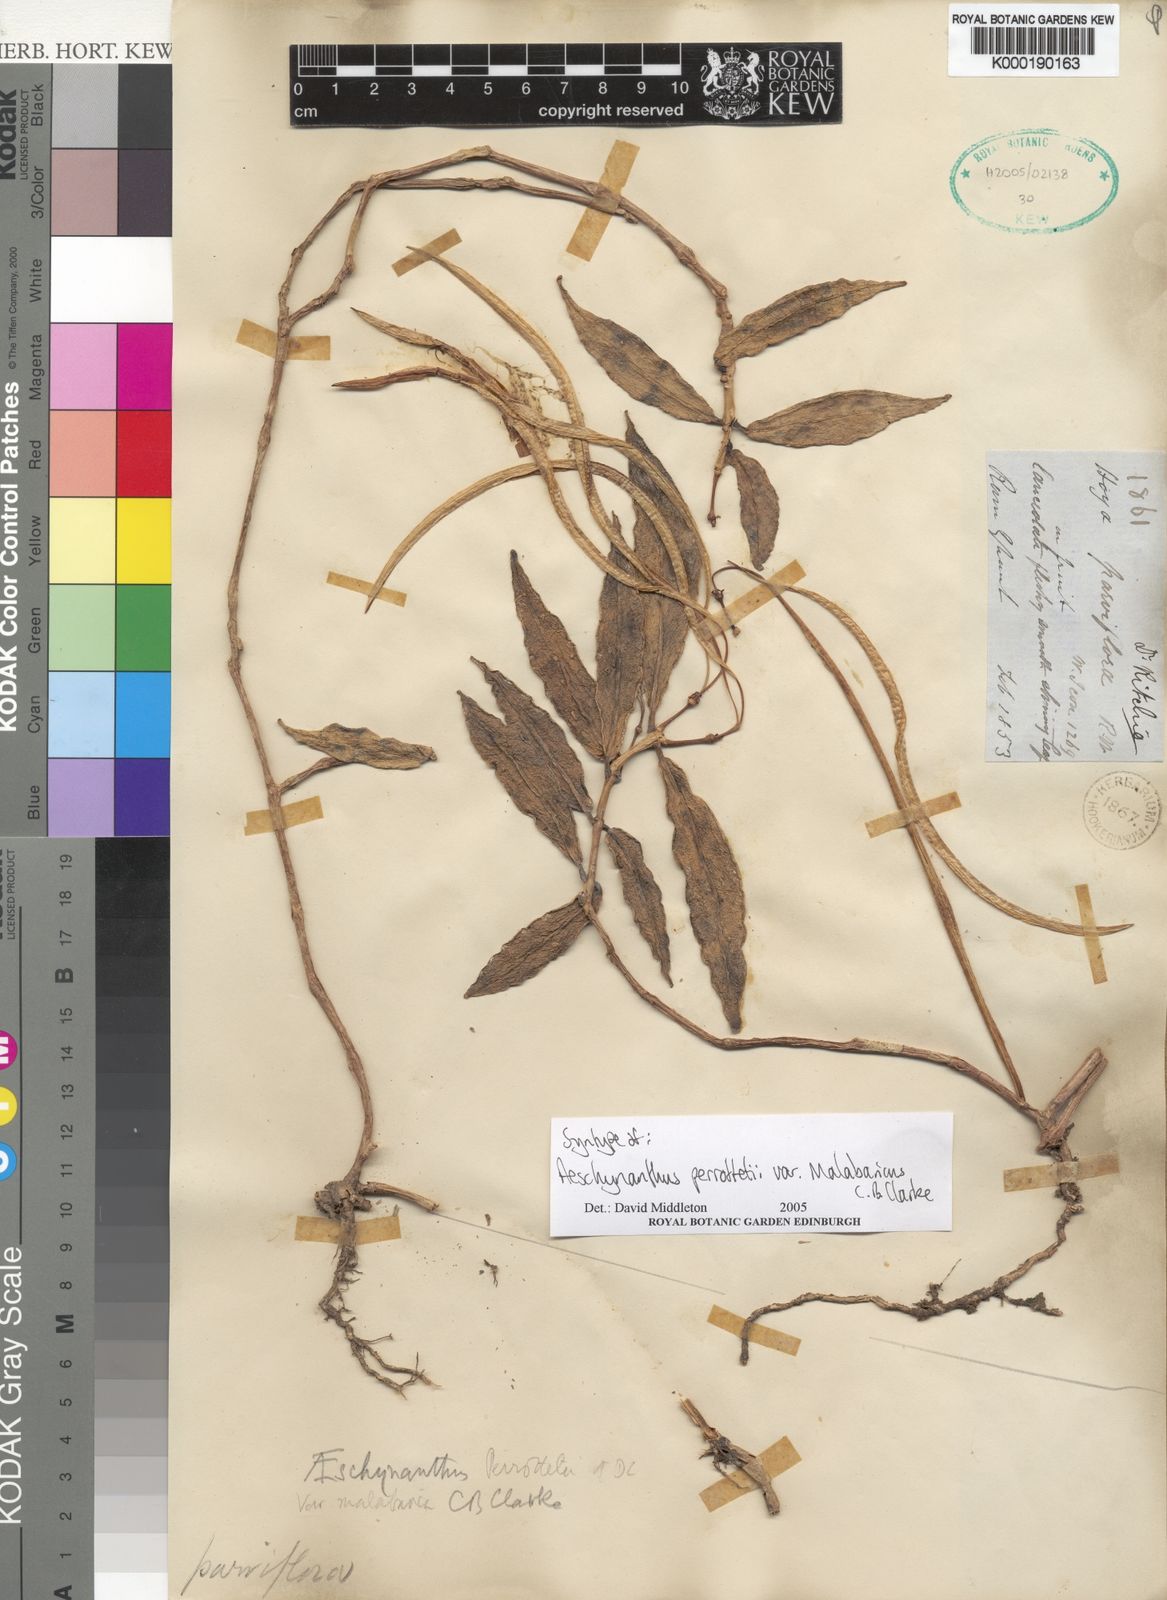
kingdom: Plantae
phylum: Tracheophyta
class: Magnoliopsida
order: Lamiales
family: Gesneriaceae
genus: Aeschynanthus
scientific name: Aeschynanthus perrottetii
